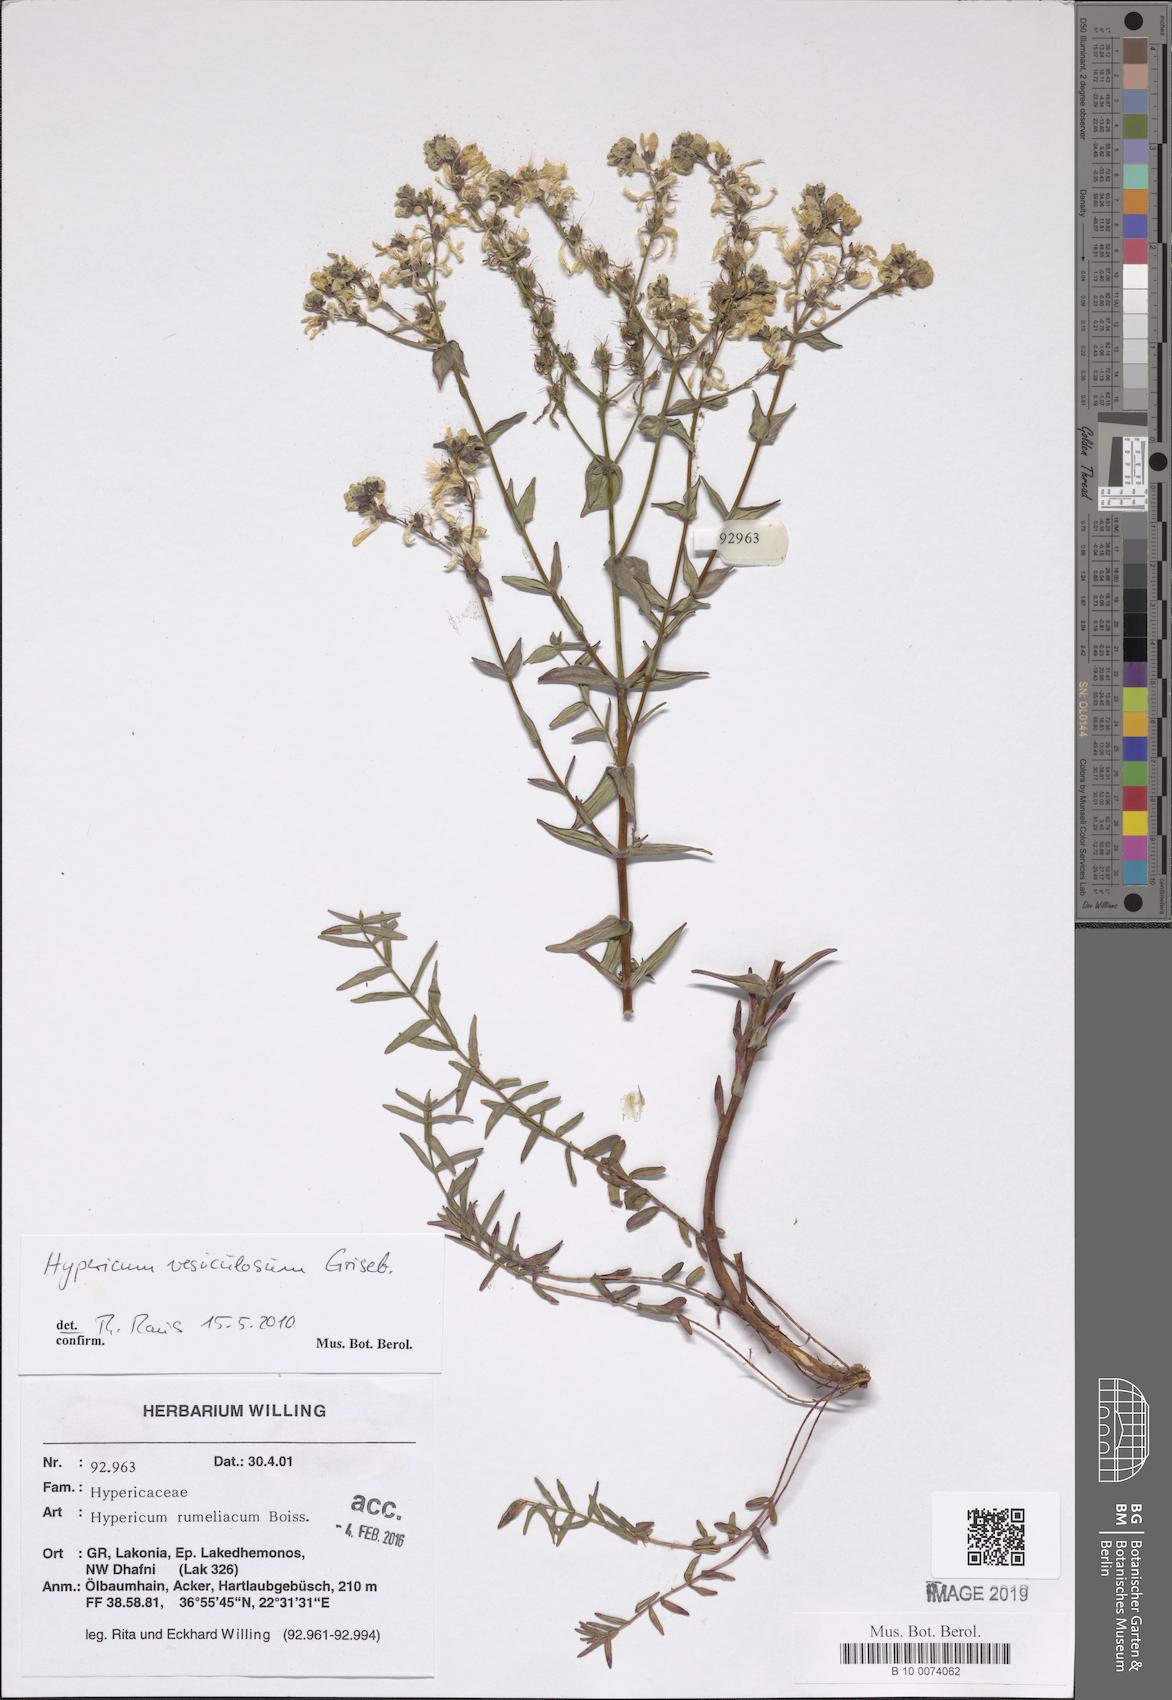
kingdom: Plantae
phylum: Tracheophyta
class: Magnoliopsida
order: Malpighiales
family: Hypericaceae
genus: Hypericum
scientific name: Hypericum perfoliatum
